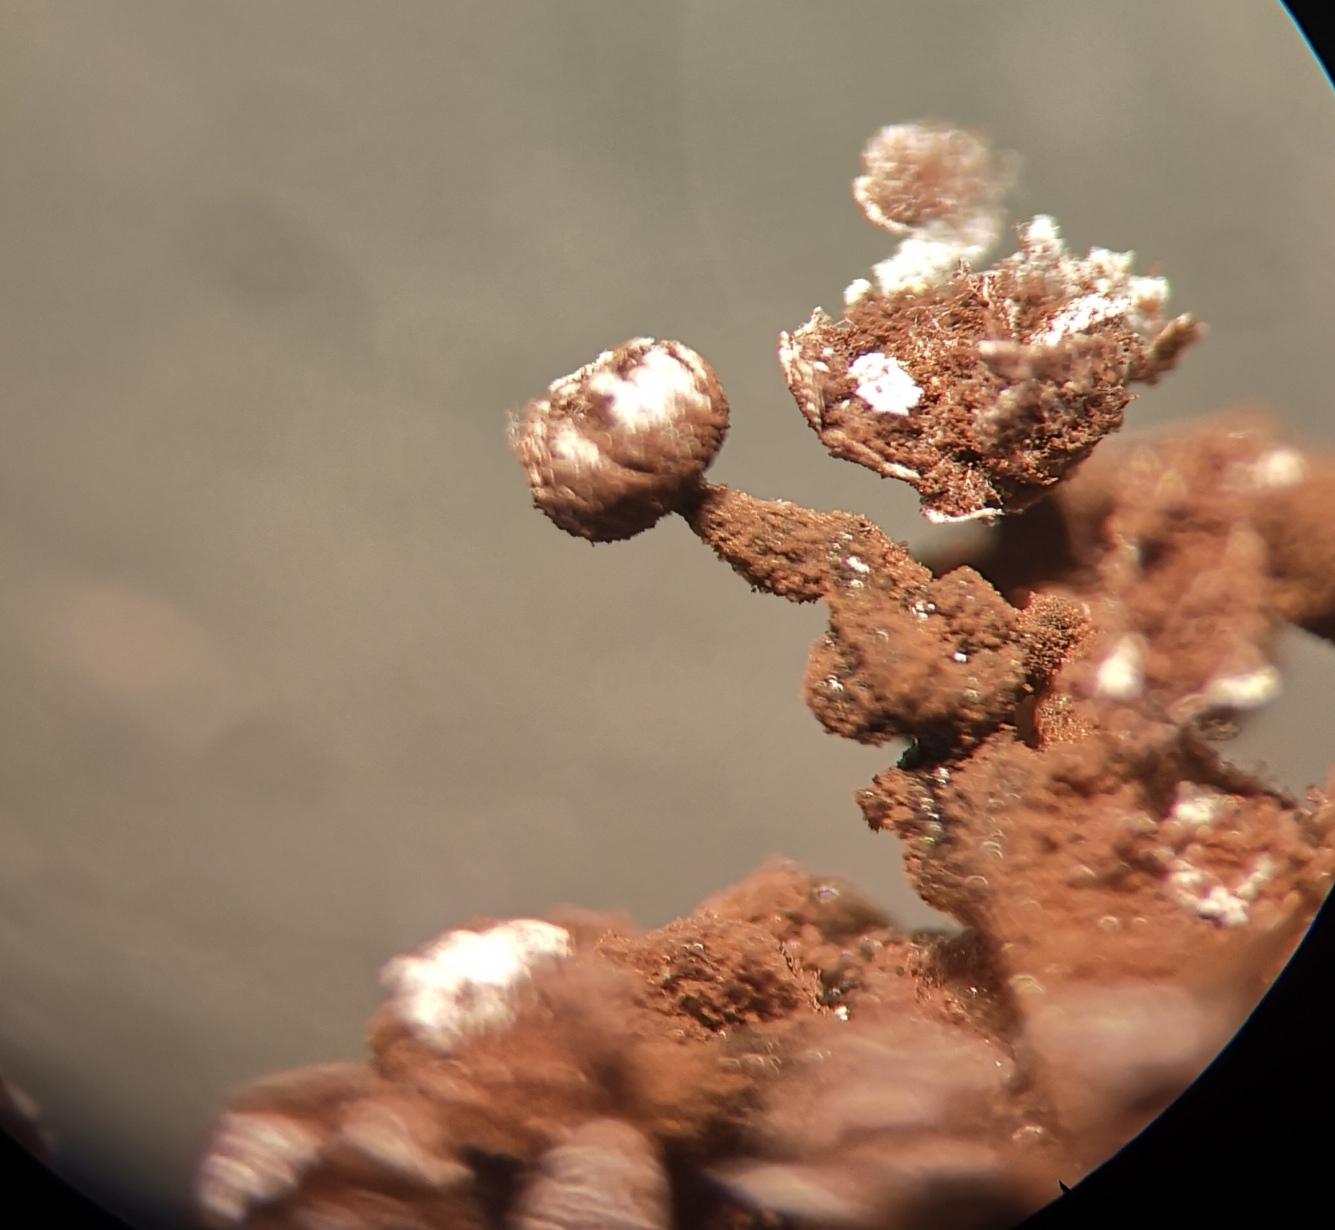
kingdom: Protozoa
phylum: Mycetozoa
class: Myxomycetes
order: Physarales
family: Physaraceae
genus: Physarum
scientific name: Physarum
